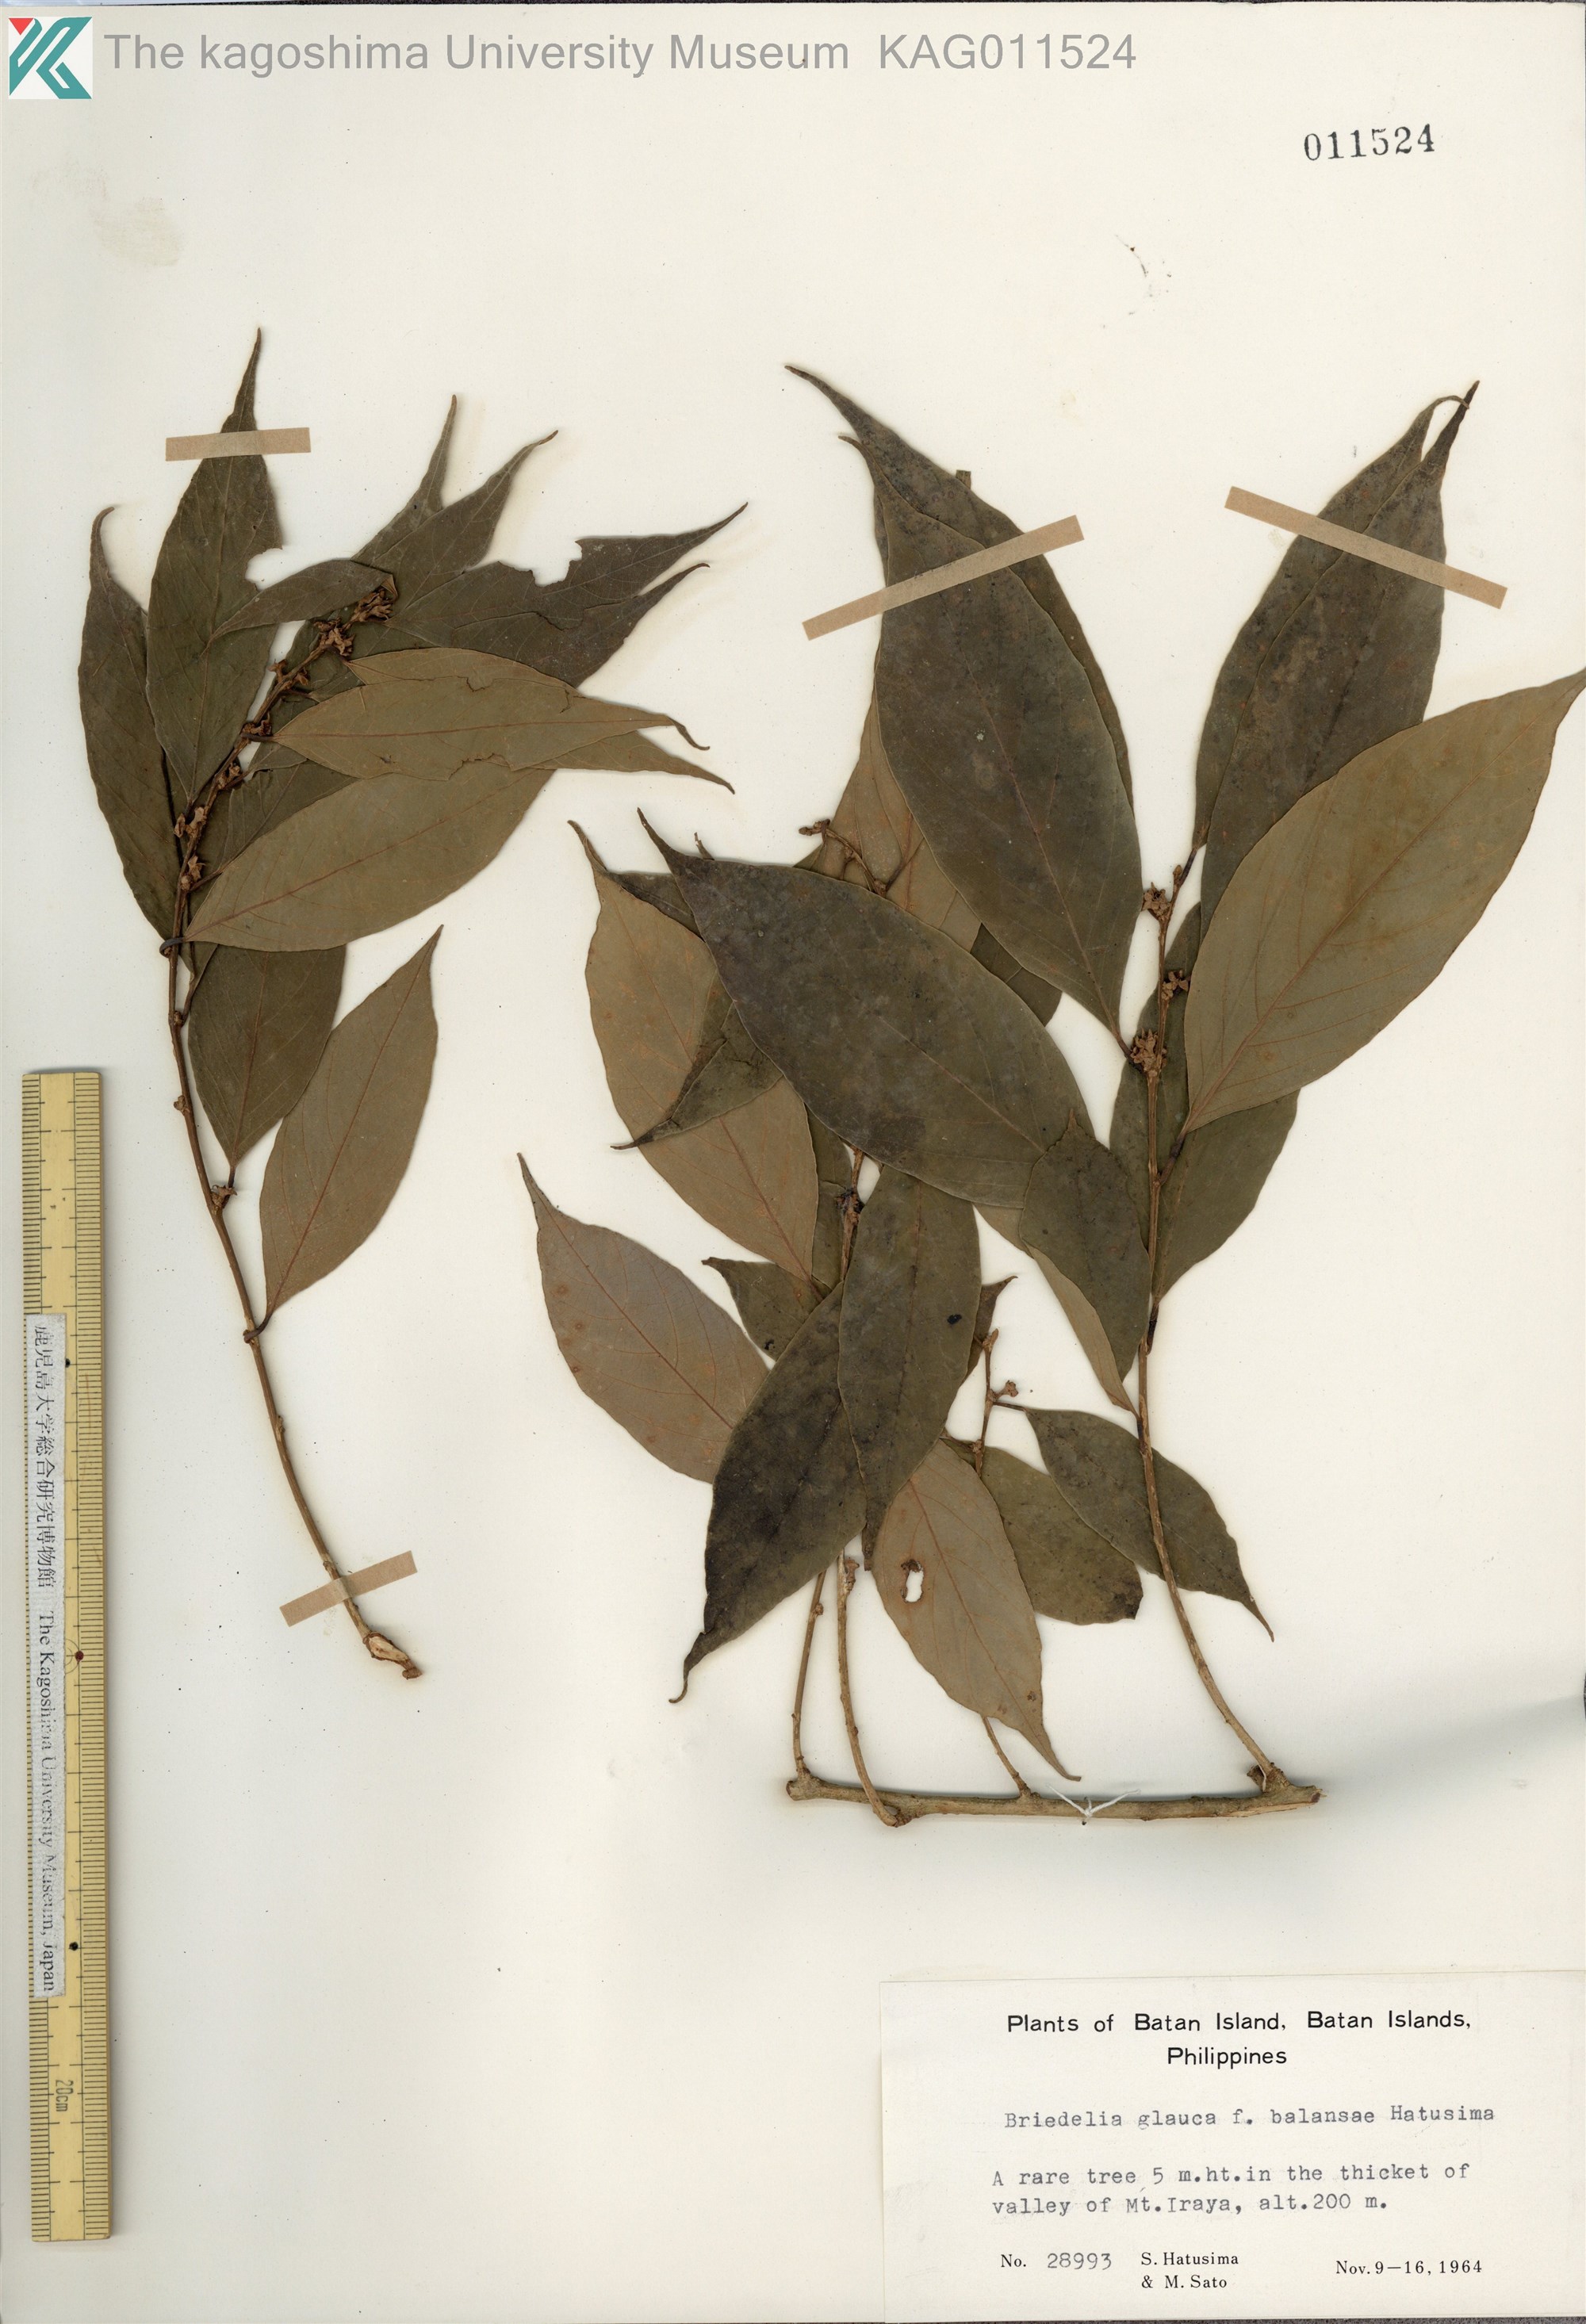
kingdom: Plantae
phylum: Tracheophyta
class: Magnoliopsida
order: Malpighiales
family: Phyllanthaceae
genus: Bridelia
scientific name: Bridelia balansae
